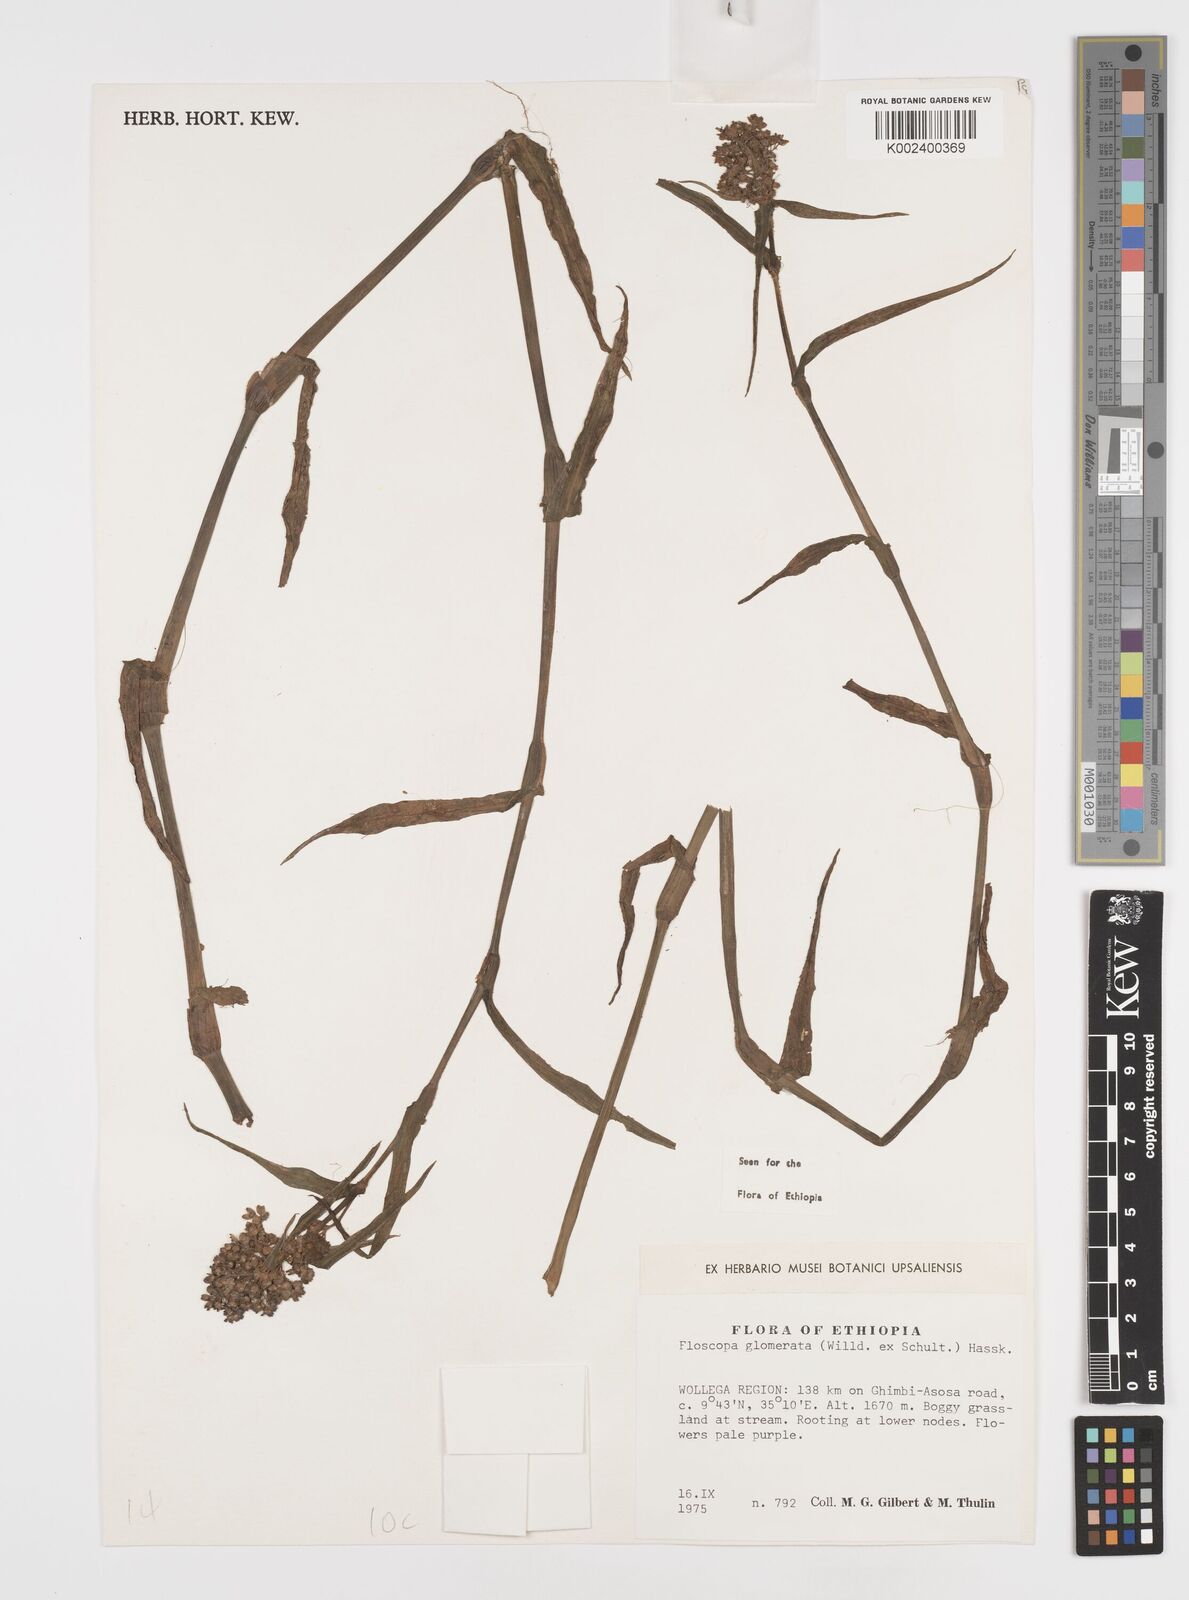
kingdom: Plantae
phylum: Tracheophyta
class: Liliopsida
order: Commelinales
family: Commelinaceae
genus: Floscopa
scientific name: Floscopa glomerata
